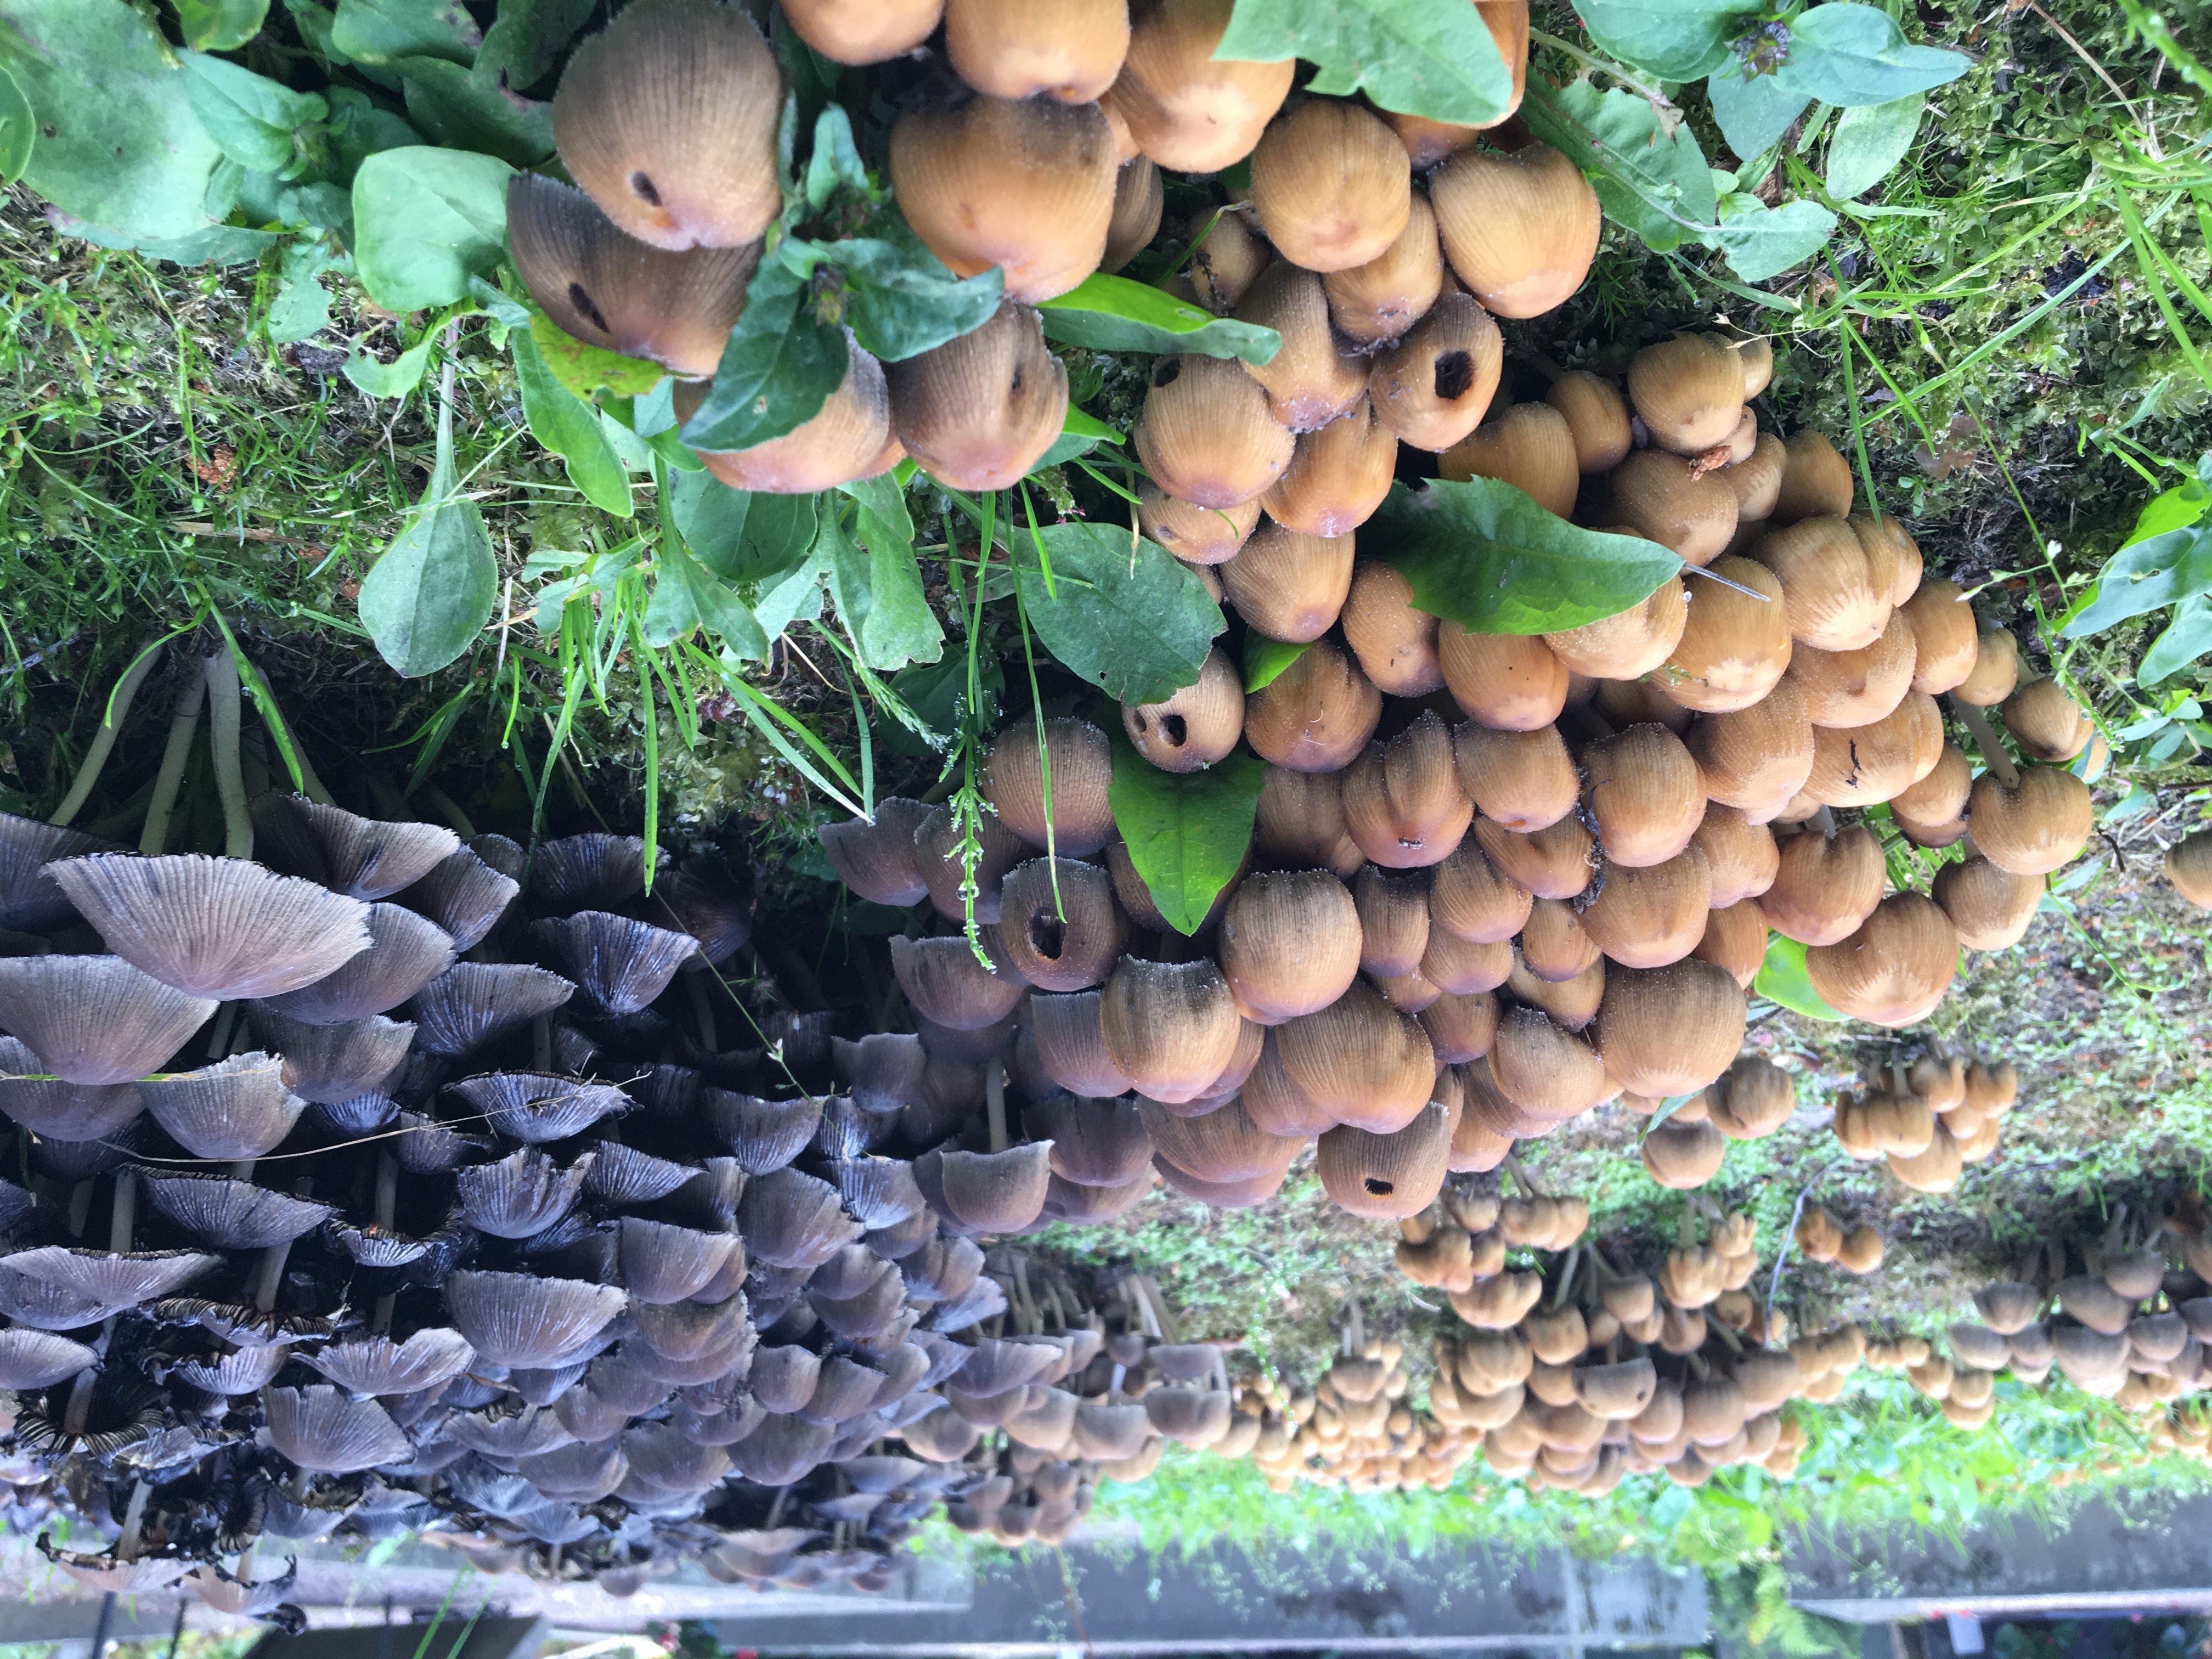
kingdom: Fungi
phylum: Basidiomycota
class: Agaricomycetes
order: Agaricales
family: Psathyrellaceae
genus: Coprinellus
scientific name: Coprinellus micaceus
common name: Glistening ink-cap
